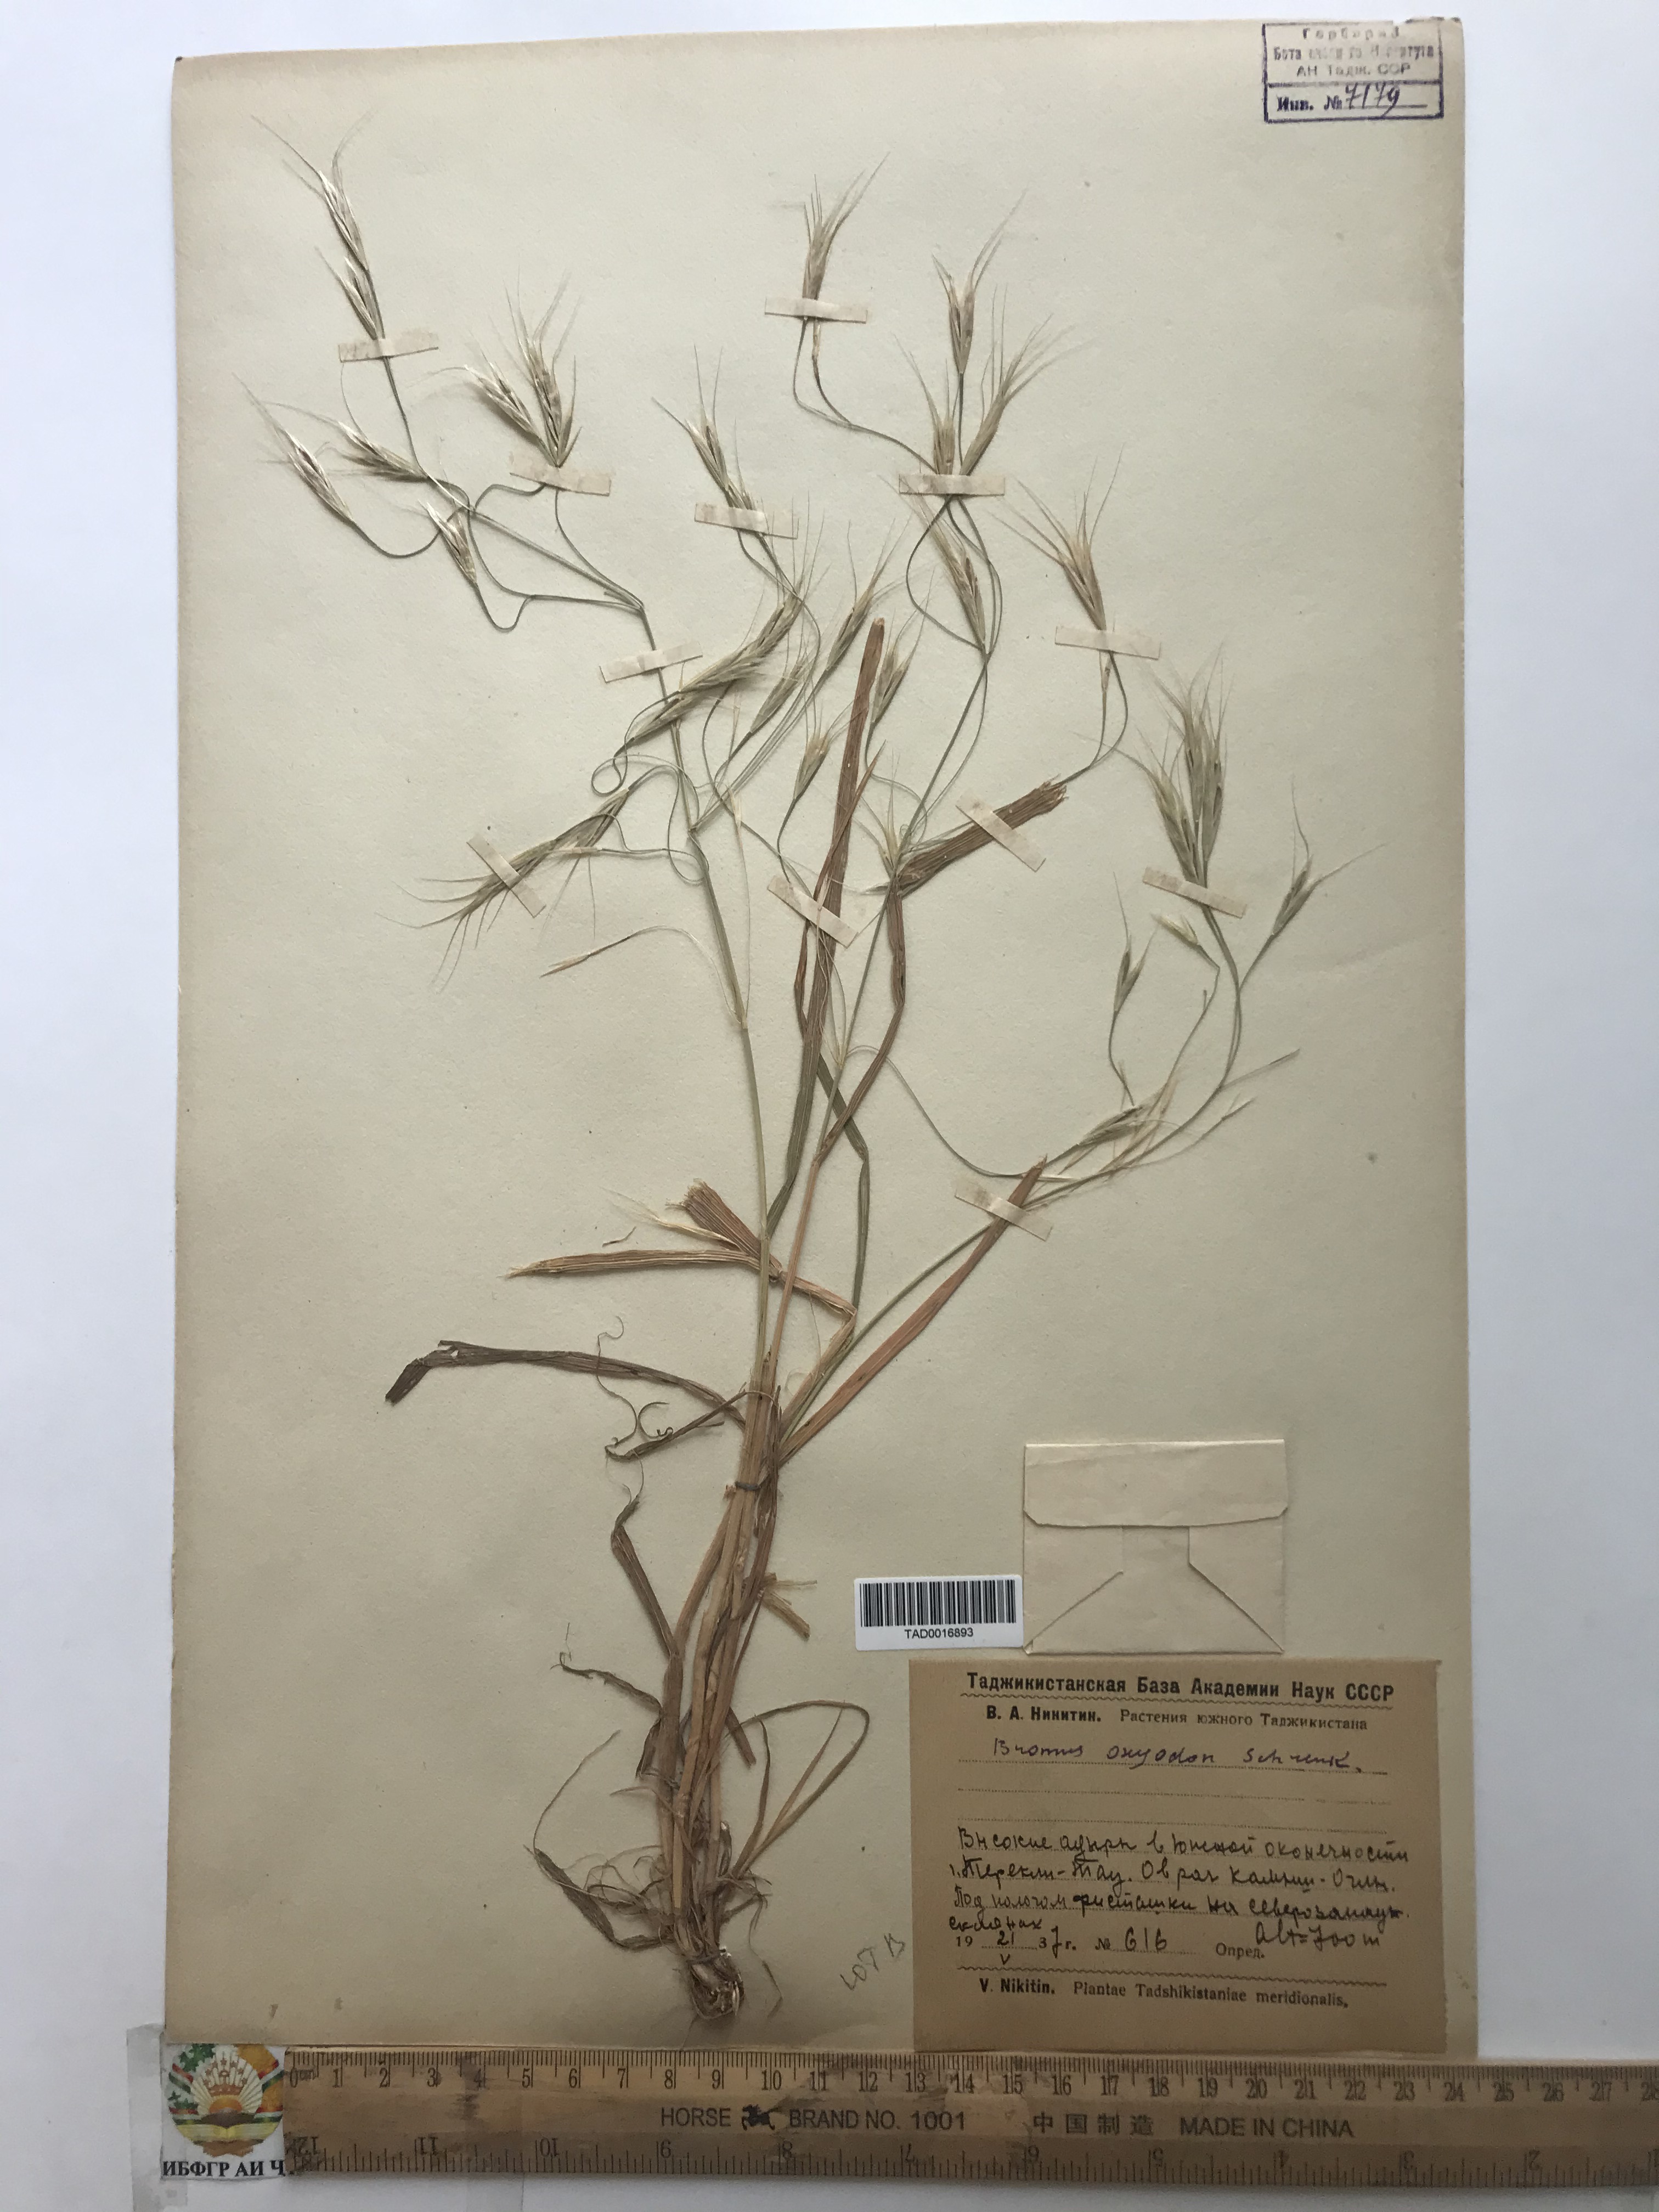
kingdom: Plantae
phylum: Tracheophyta
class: Liliopsida
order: Poales
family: Poaceae
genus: Bromus
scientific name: Bromus oxyodon
